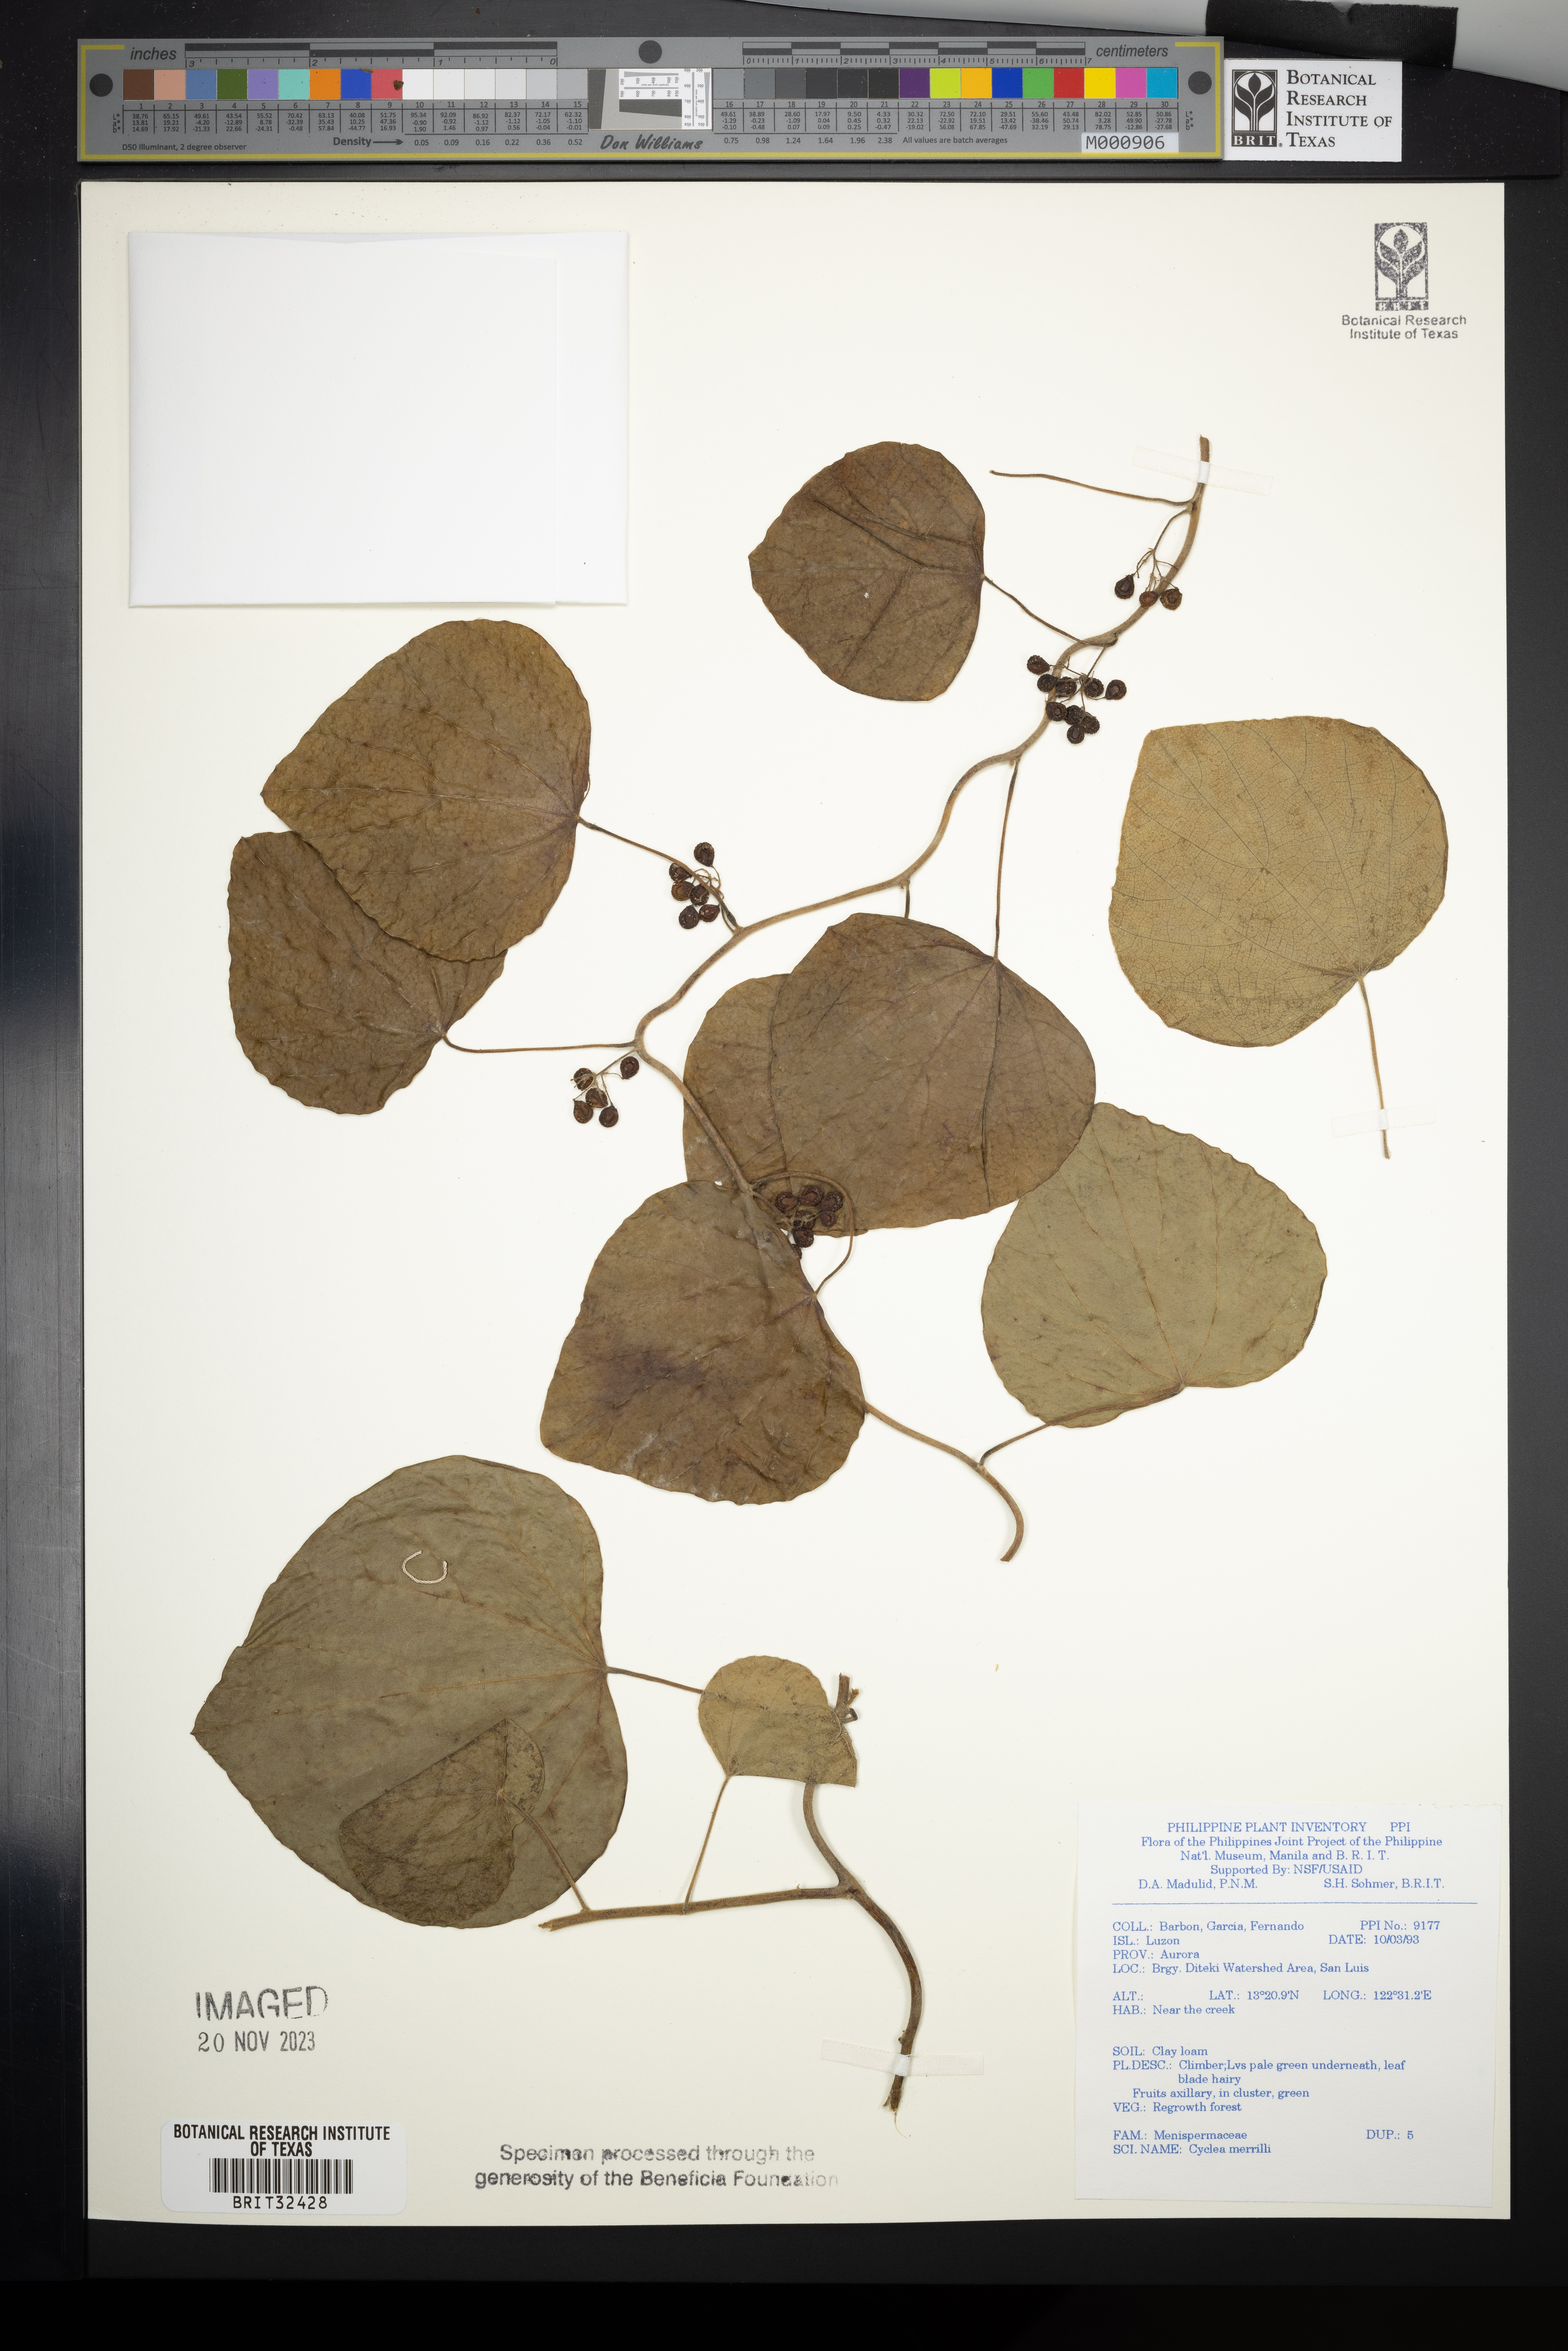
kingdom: Plantae
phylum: Tracheophyta
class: Magnoliopsida
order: Ranunculales
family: Menispermaceae
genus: Cyclea
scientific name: Cyclea merrillii
